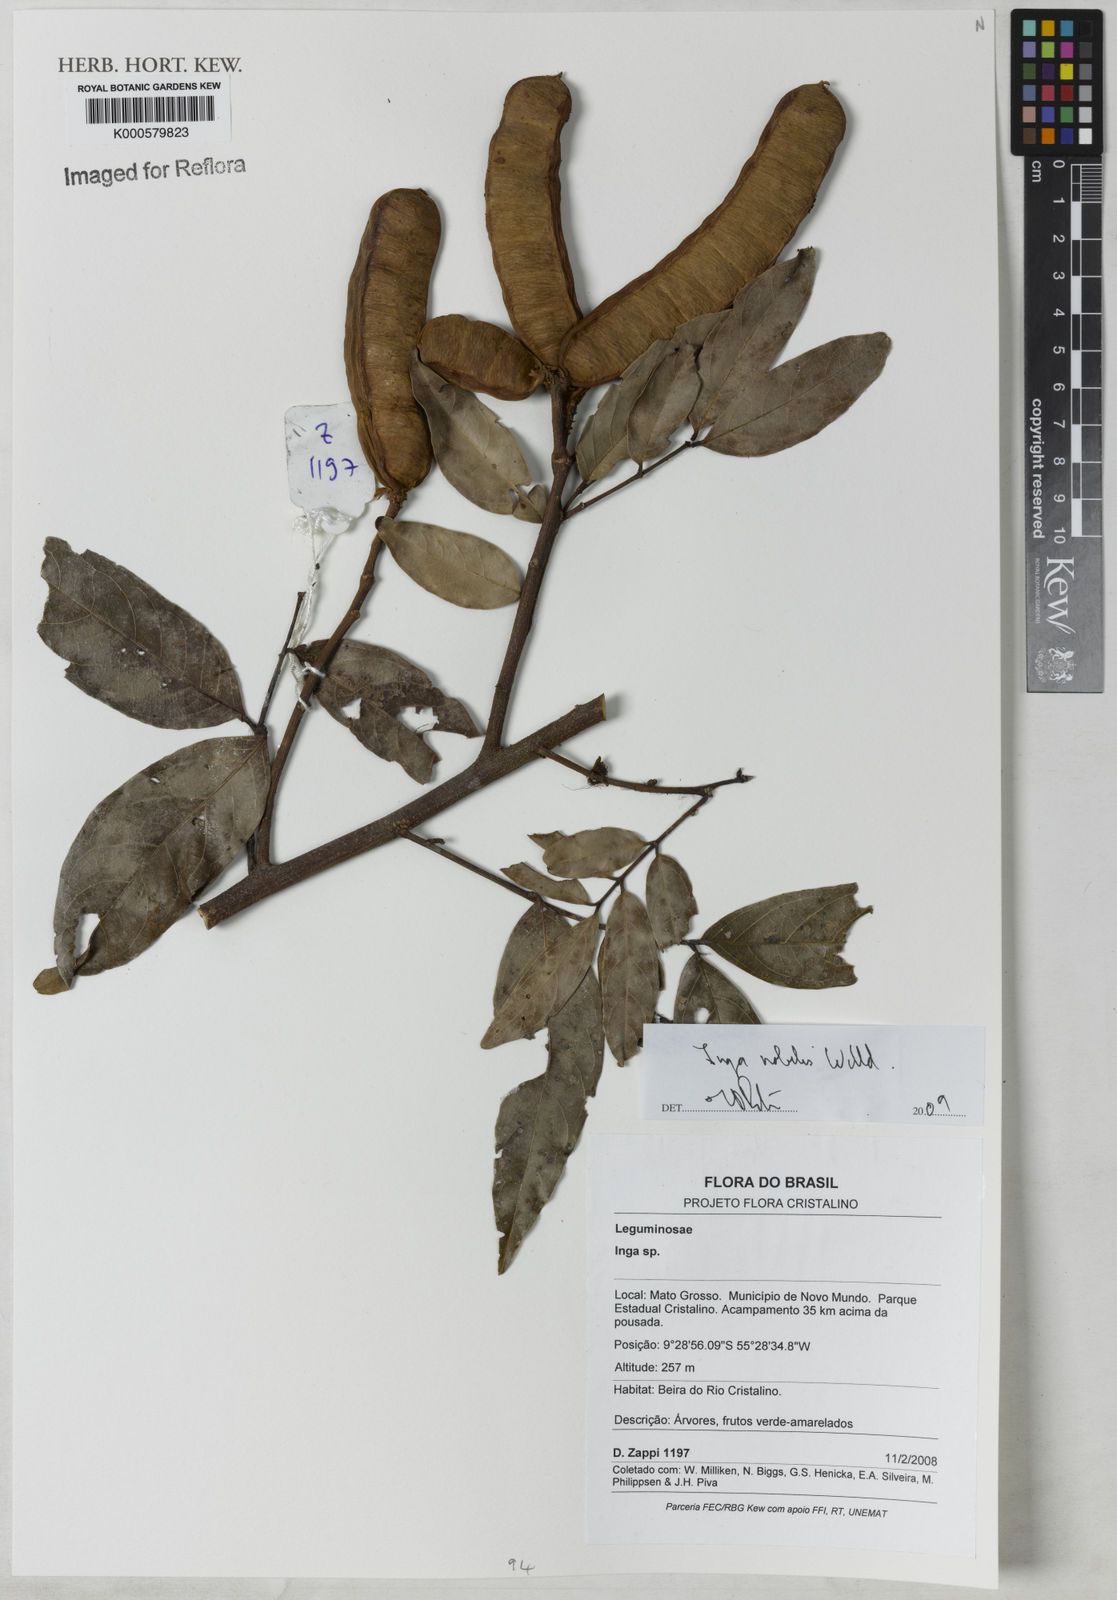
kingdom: Plantae
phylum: Tracheophyta
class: Magnoliopsida
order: Fabales
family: Fabaceae
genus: Inga
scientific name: Inga nobilis
